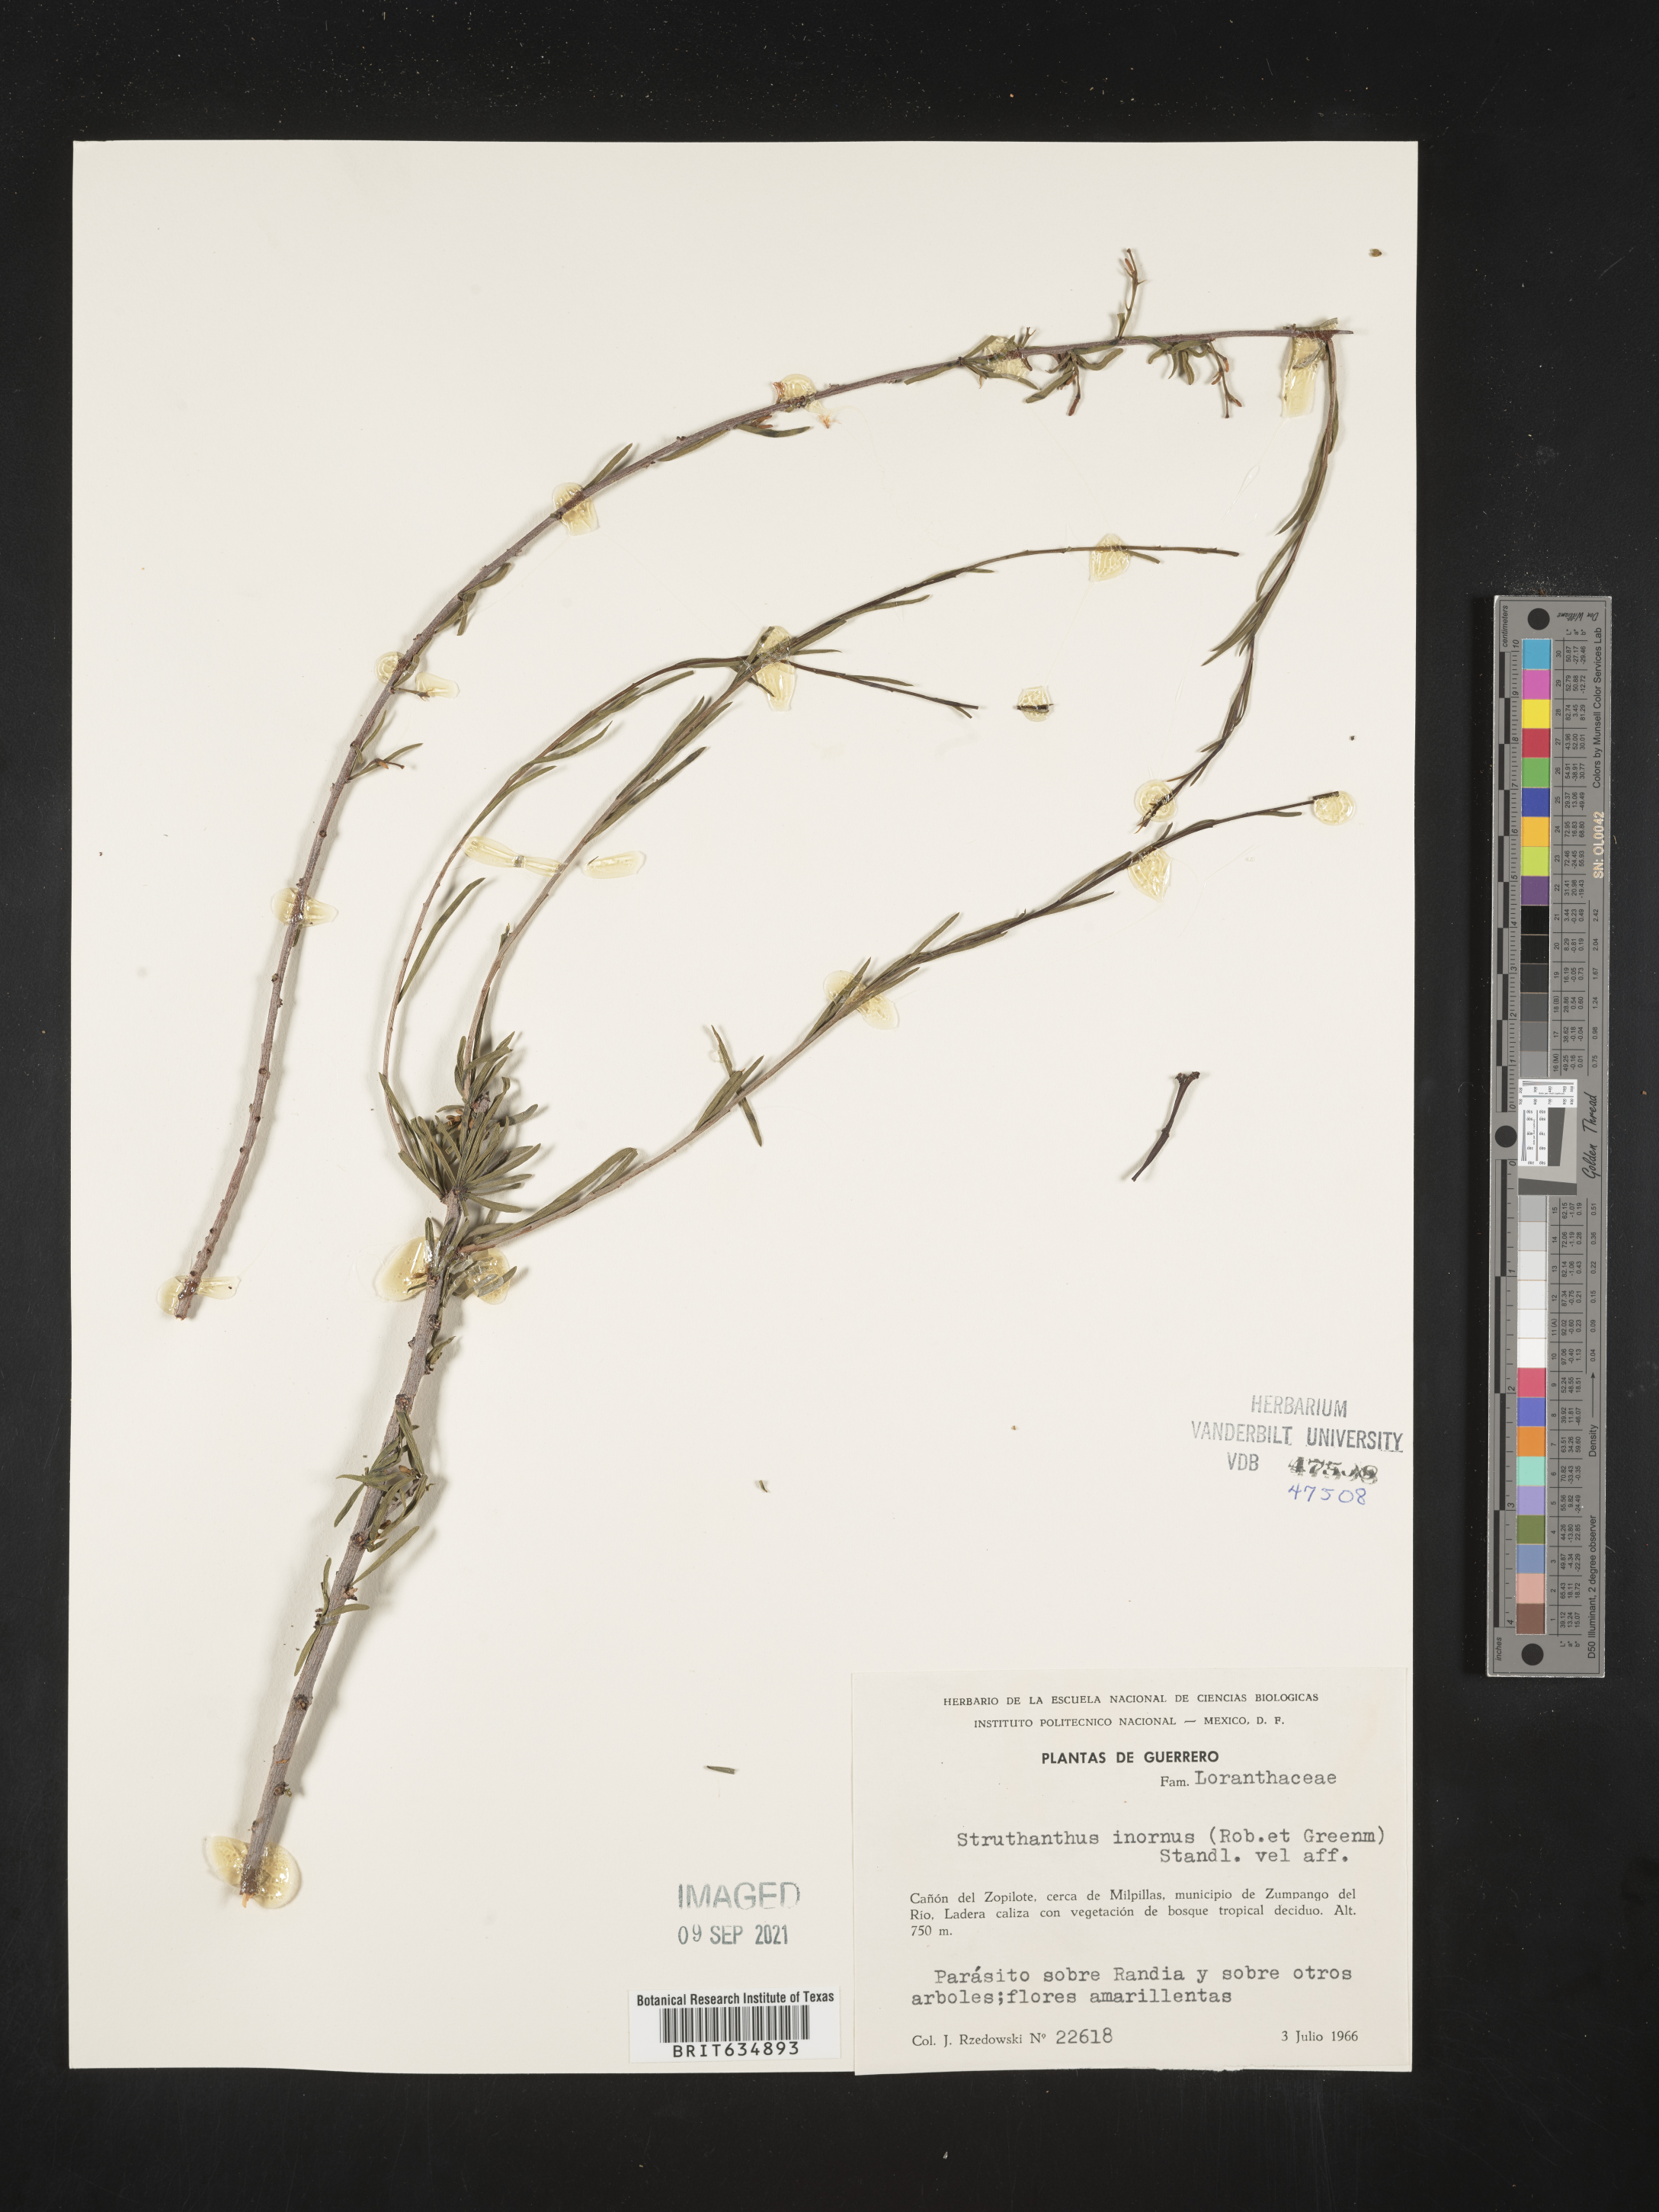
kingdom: Plantae
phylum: Tracheophyta
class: Magnoliopsida
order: Santalales
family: Loranthaceae
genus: Struthanthus
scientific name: Struthanthus
